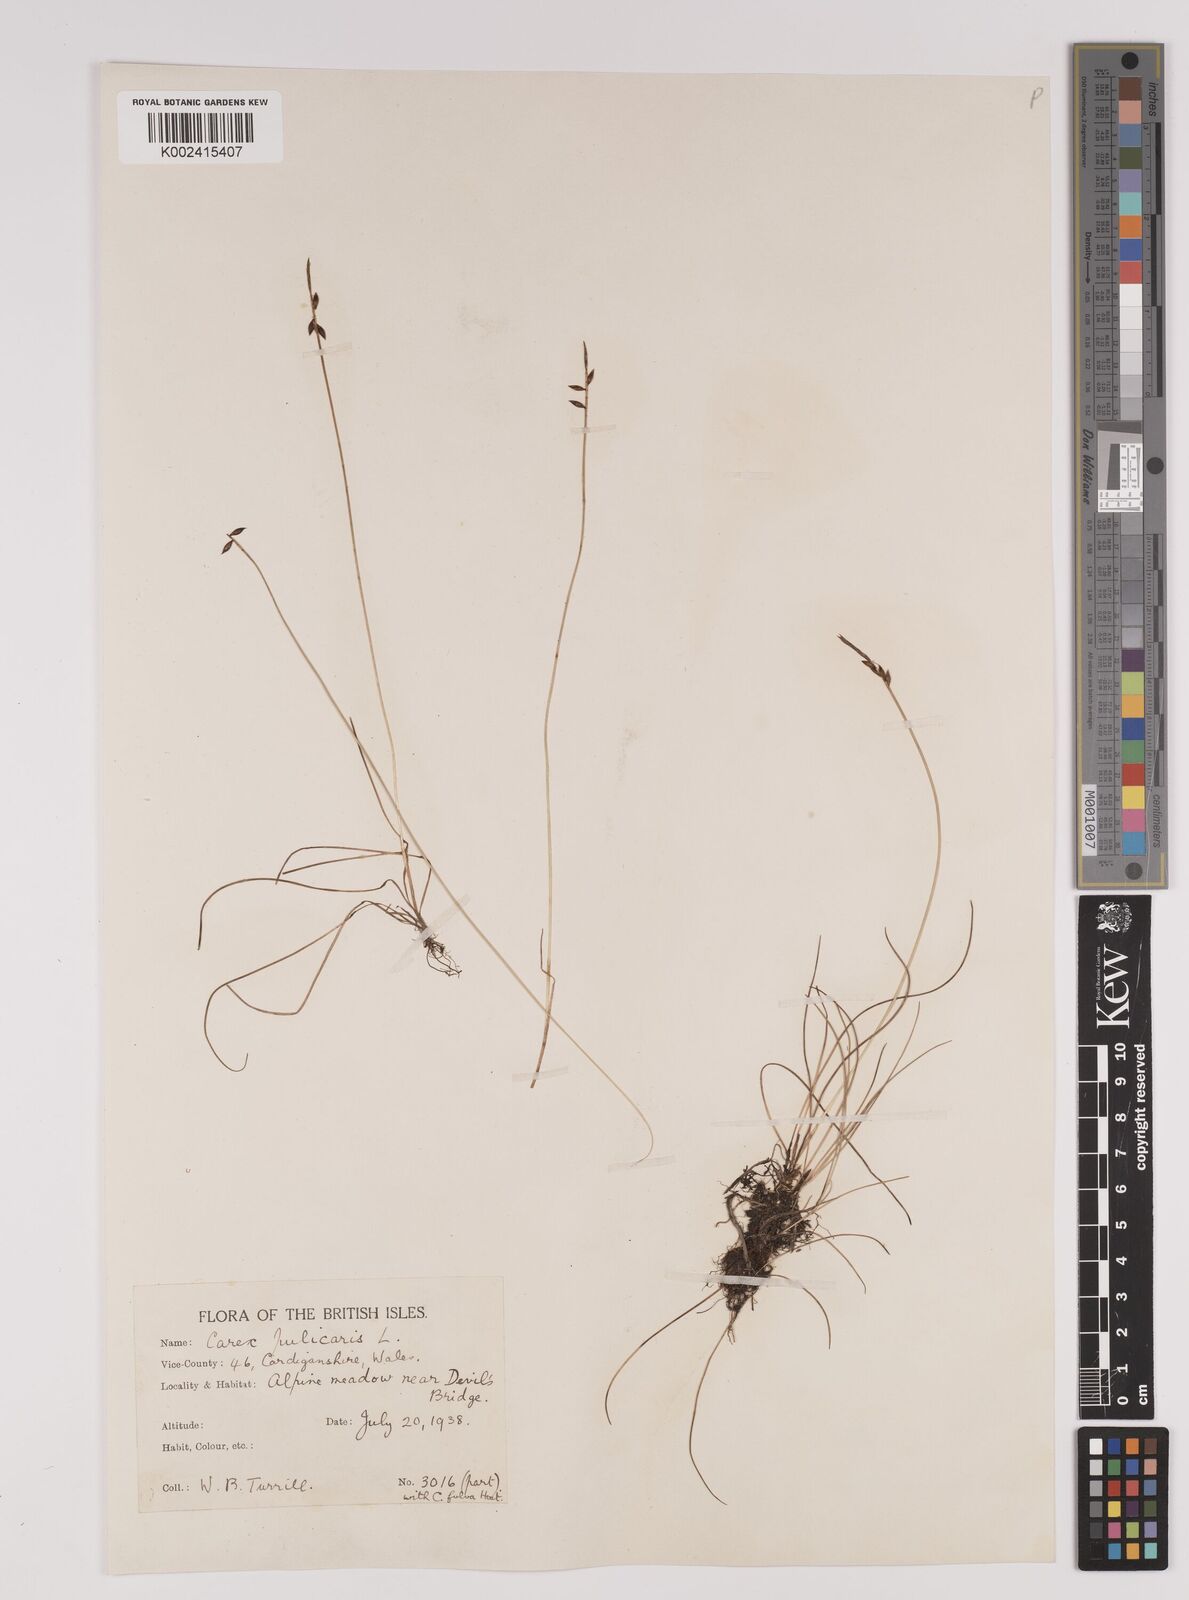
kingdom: Plantae
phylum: Tracheophyta
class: Liliopsida
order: Poales
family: Cyperaceae
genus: Carex
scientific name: Carex pulicaris
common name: Flea sedge
